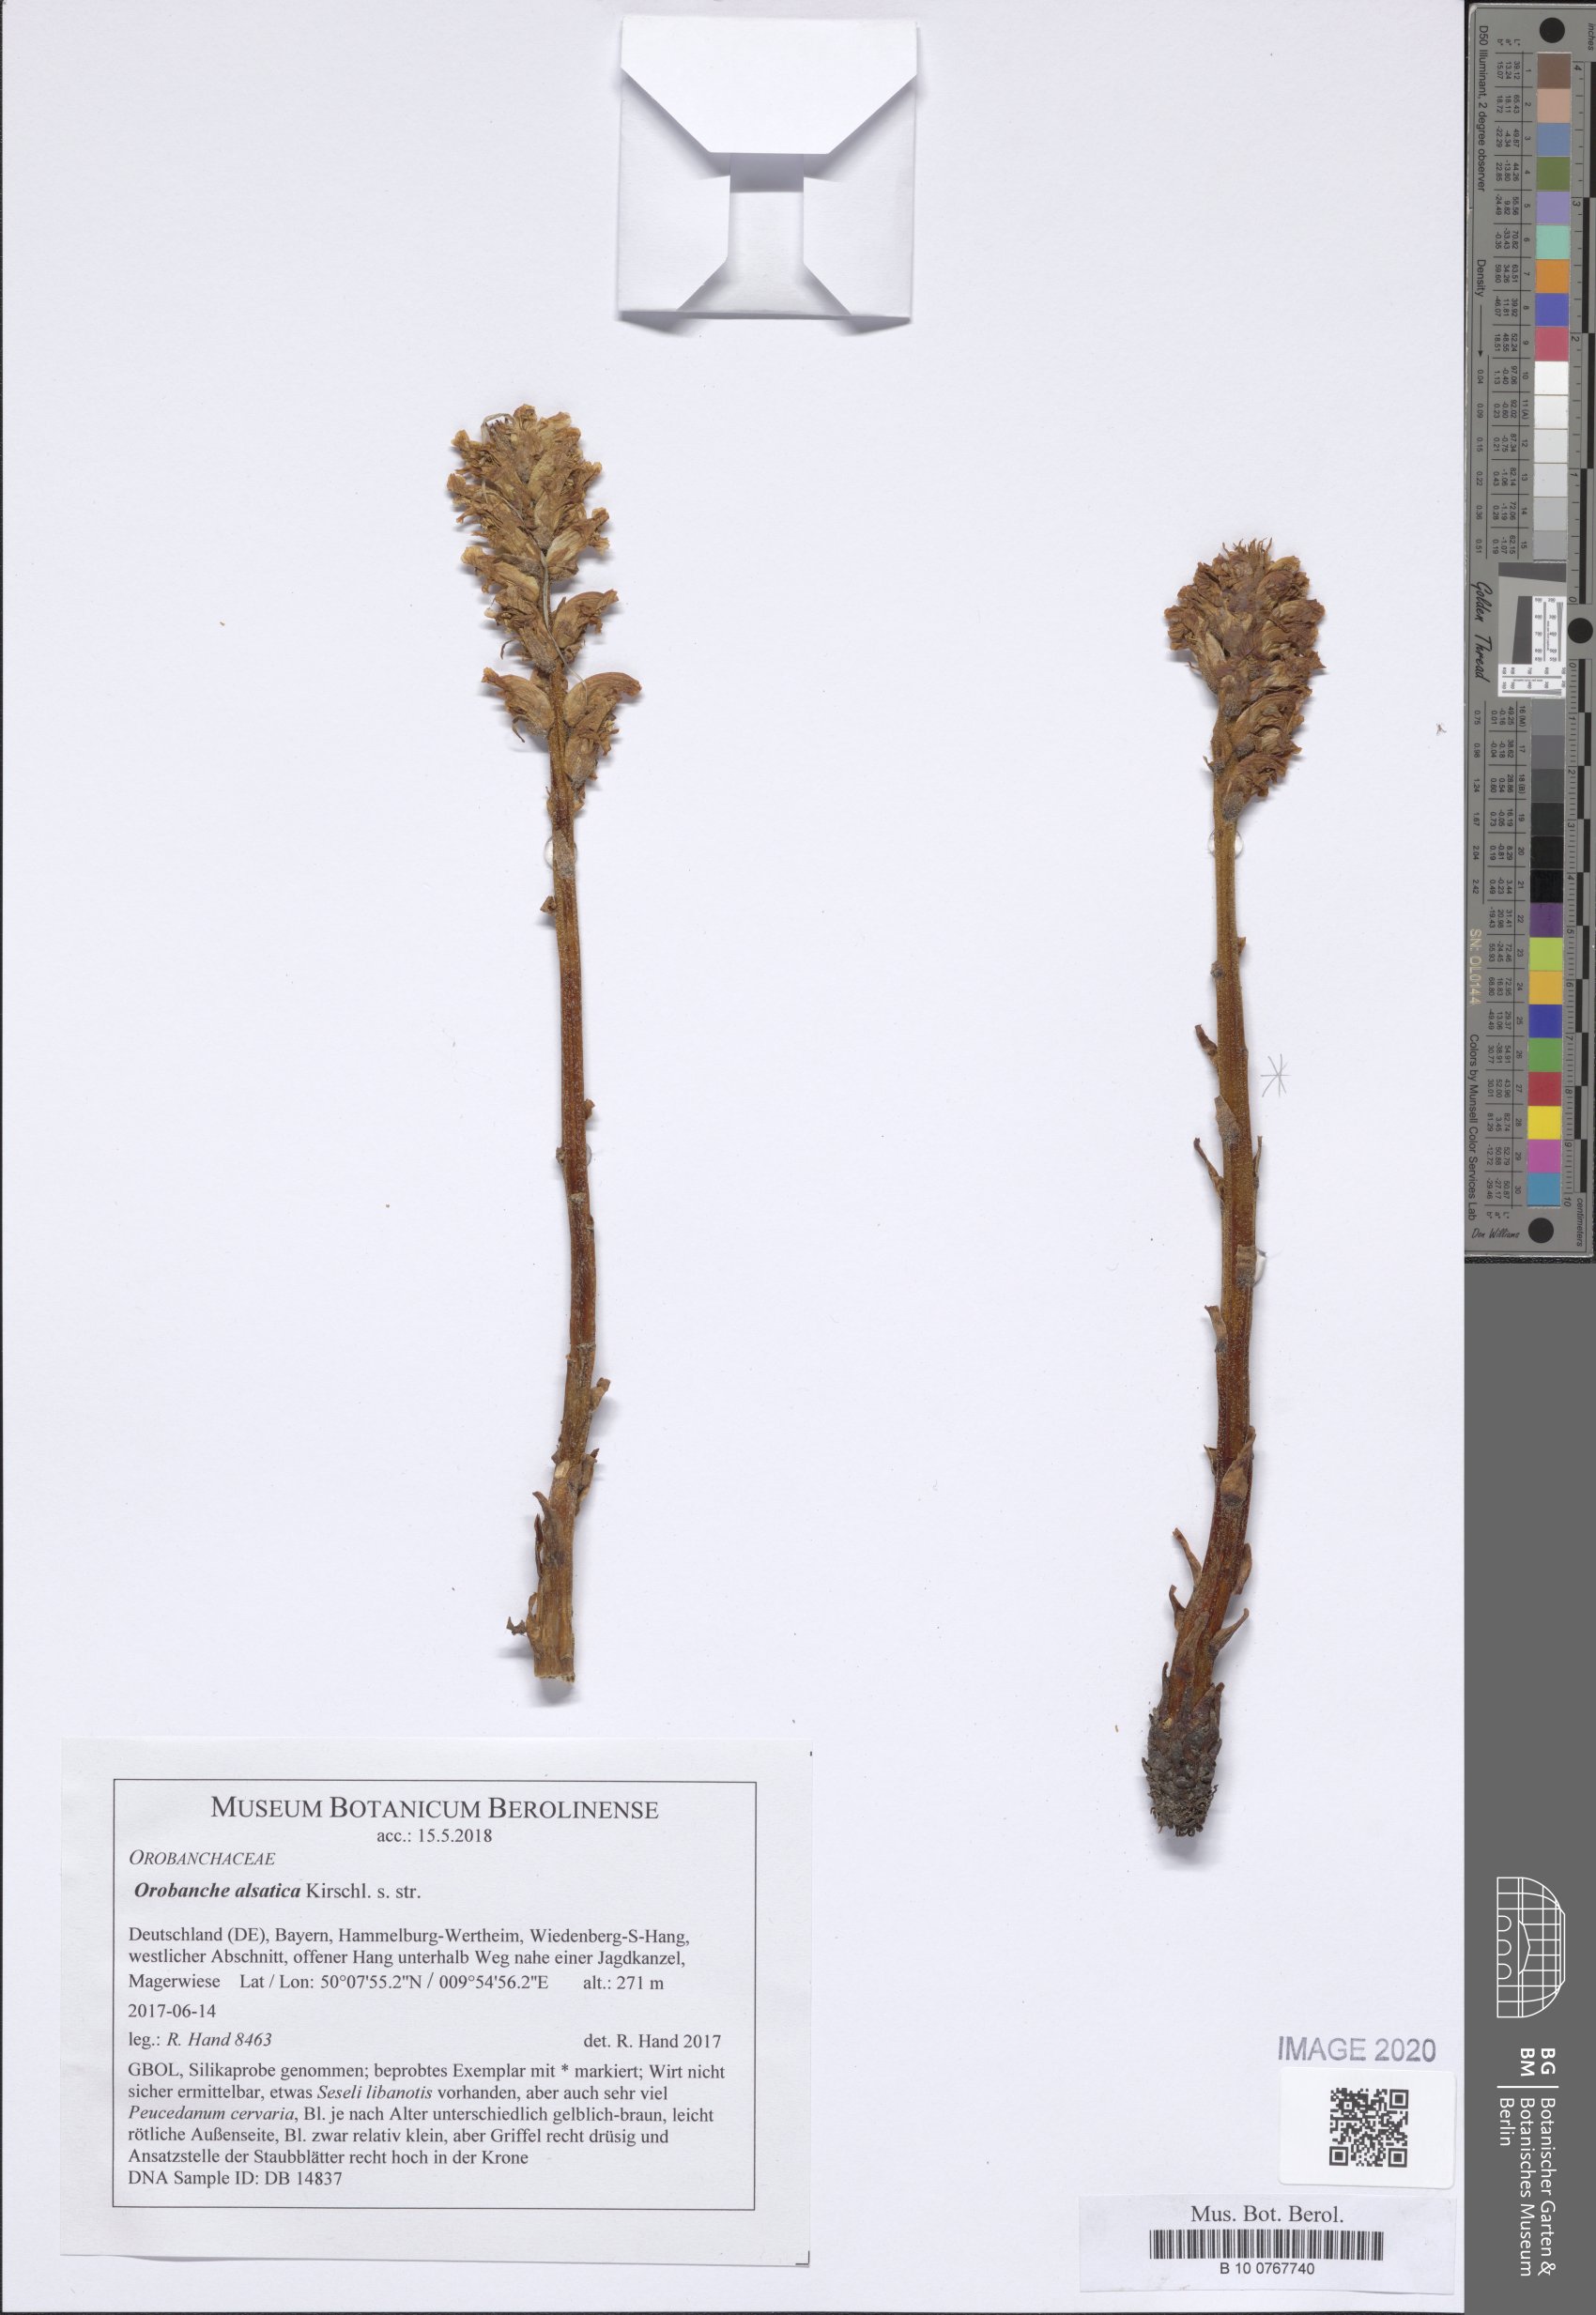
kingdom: Plantae
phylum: Tracheophyta
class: Magnoliopsida
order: Lamiales
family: Orobanchaceae
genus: Orobanche
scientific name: Orobanche alsatica
